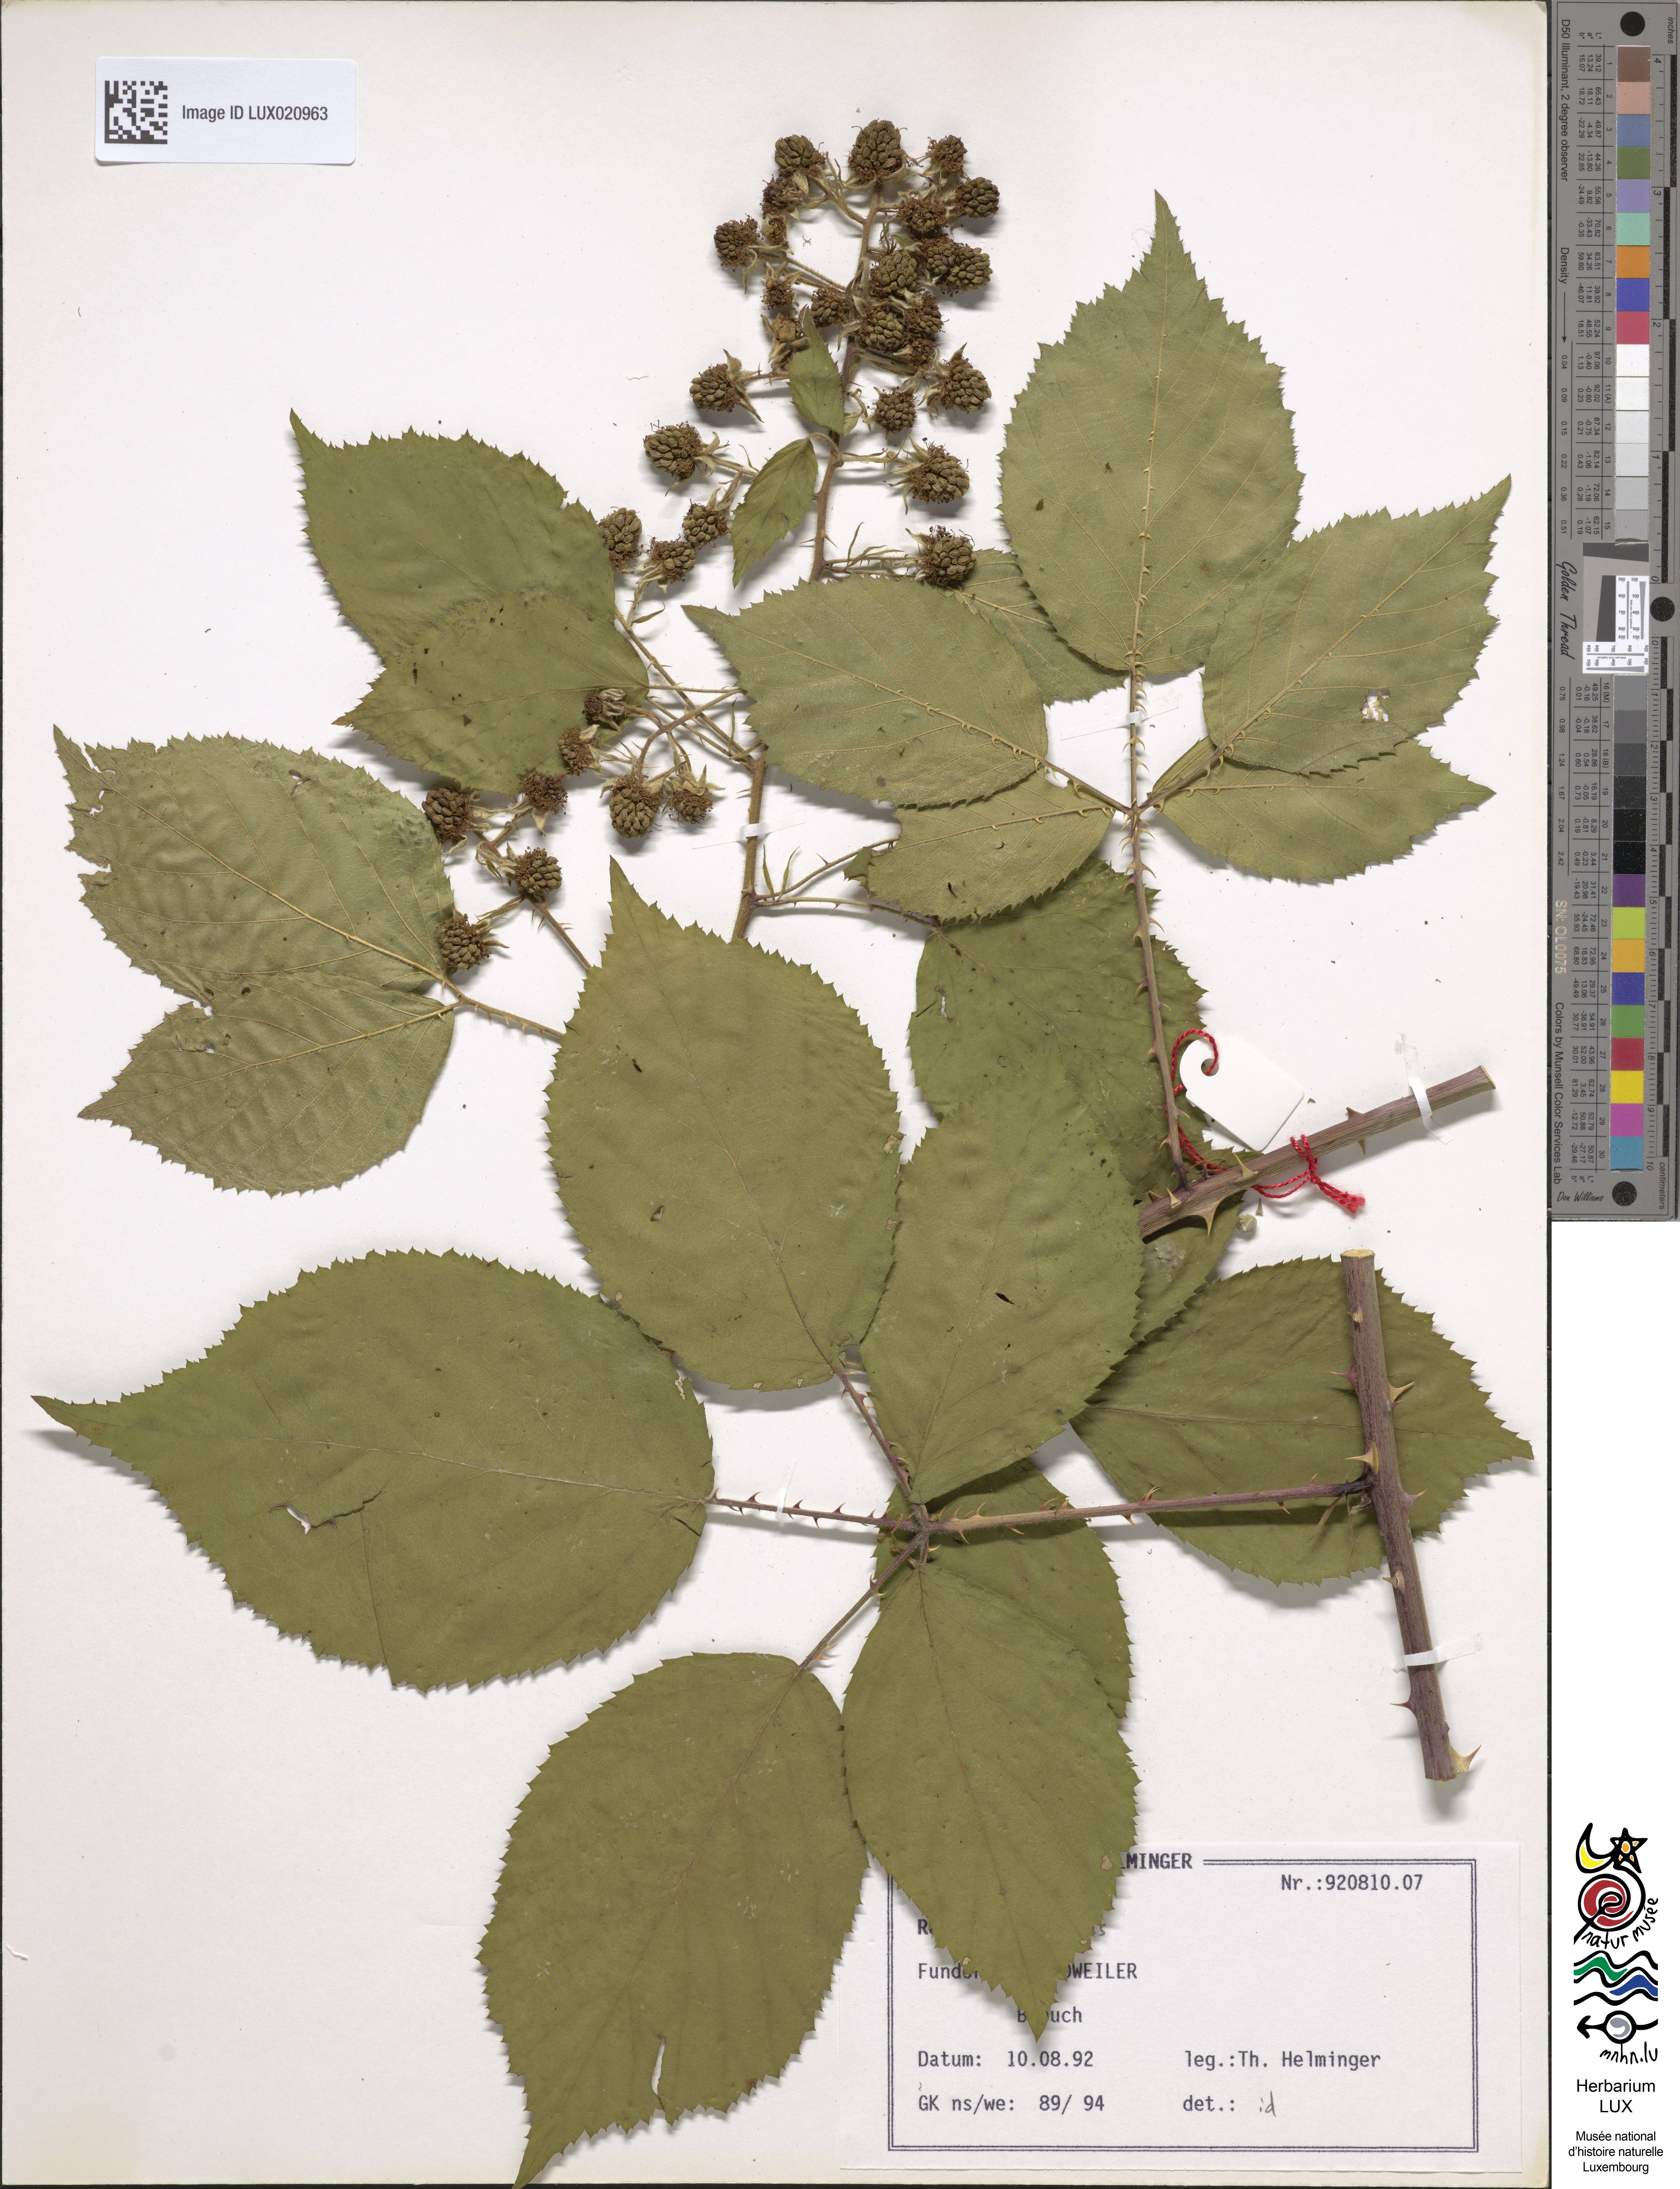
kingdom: Plantae
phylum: Tracheophyta
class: Magnoliopsida
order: Rosales
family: Rosaceae
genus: Rubus
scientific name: Rubus umbrosus
